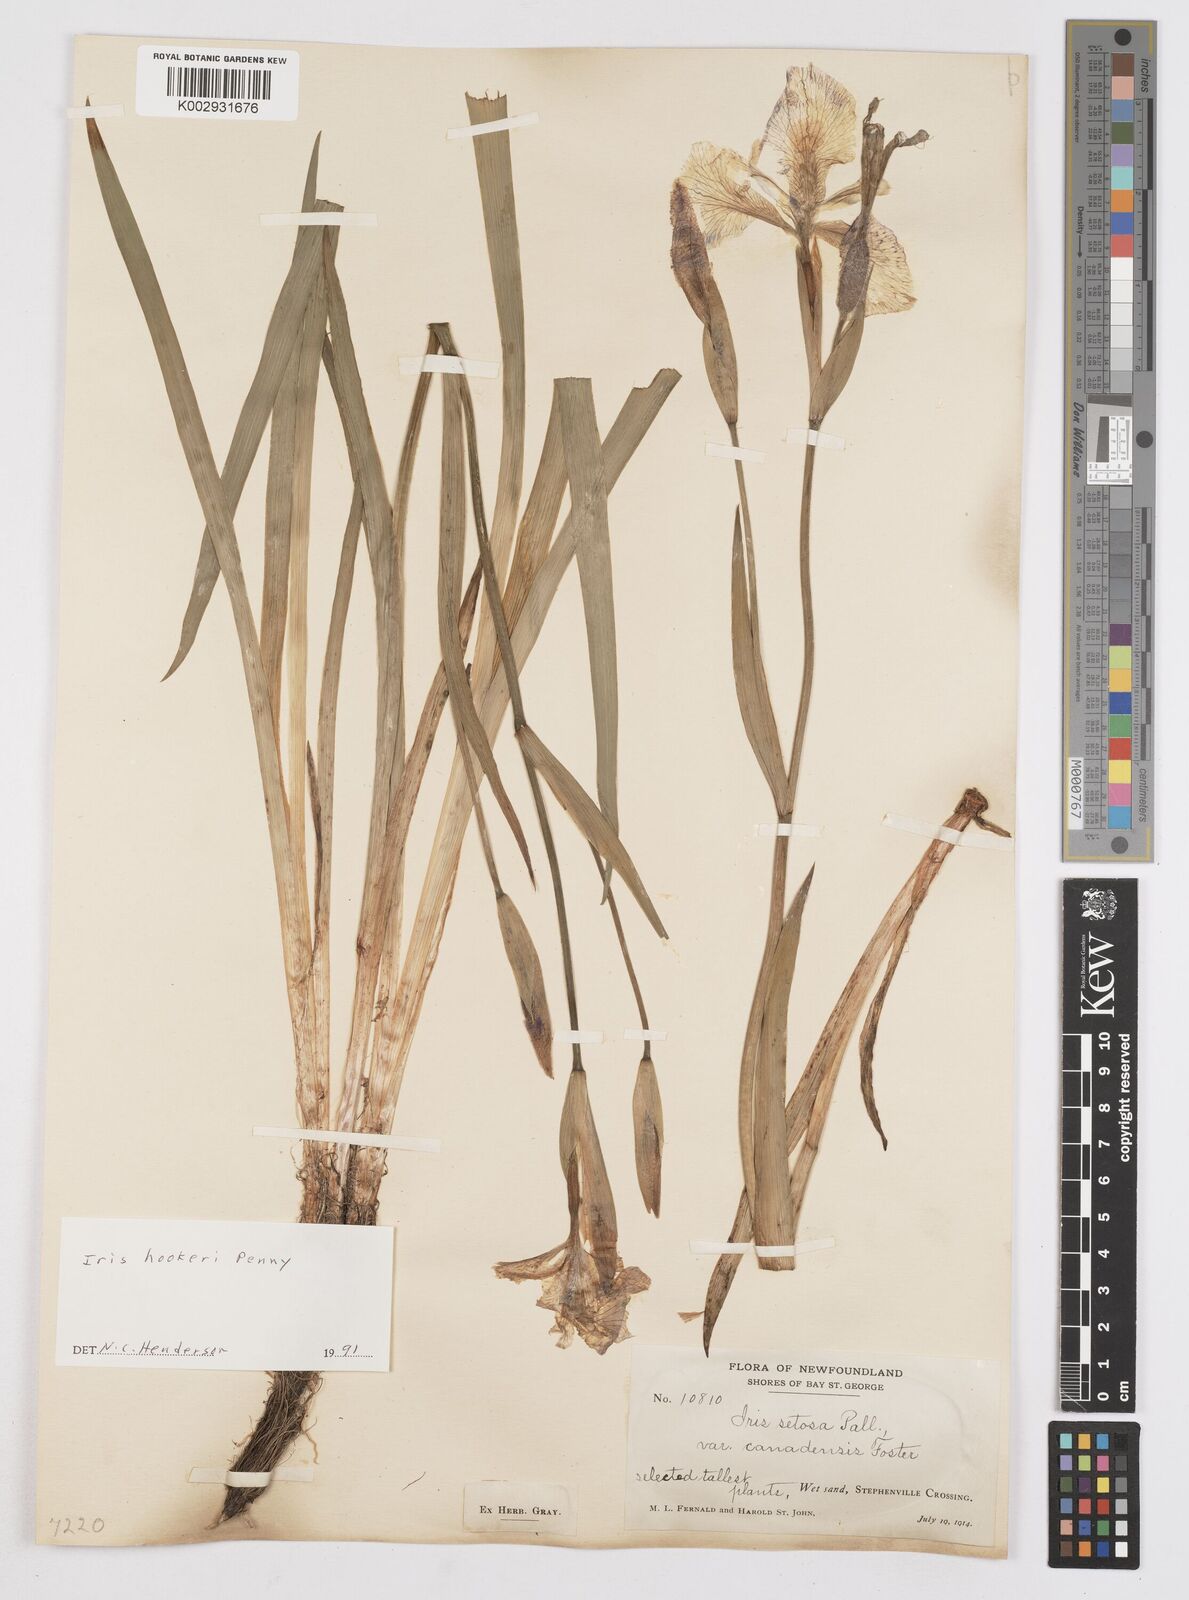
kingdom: Plantae
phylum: Tracheophyta
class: Liliopsida
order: Asparagales
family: Iridaceae
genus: Iris
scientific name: Iris setosa
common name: Arctic blue flag
